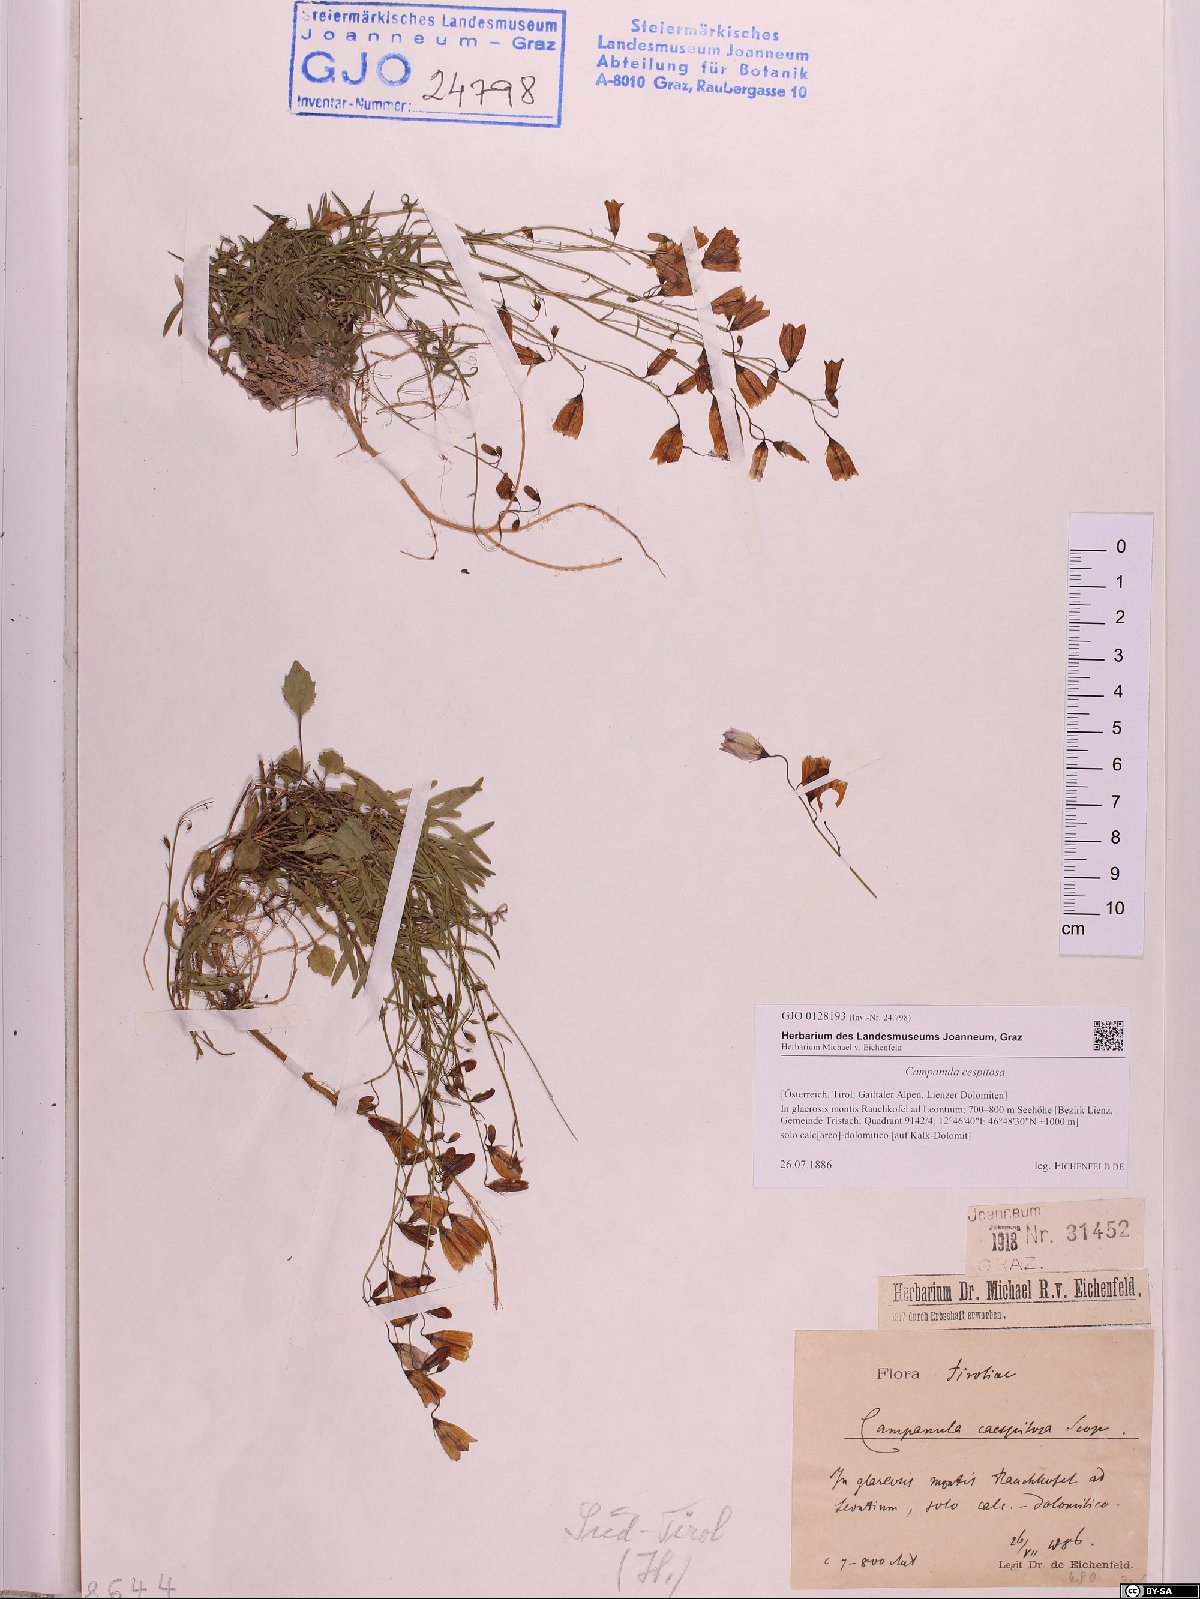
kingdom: Plantae
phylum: Tracheophyta
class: Magnoliopsida
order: Asterales
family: Campanulaceae
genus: Campanula
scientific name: Campanula cespitosa
